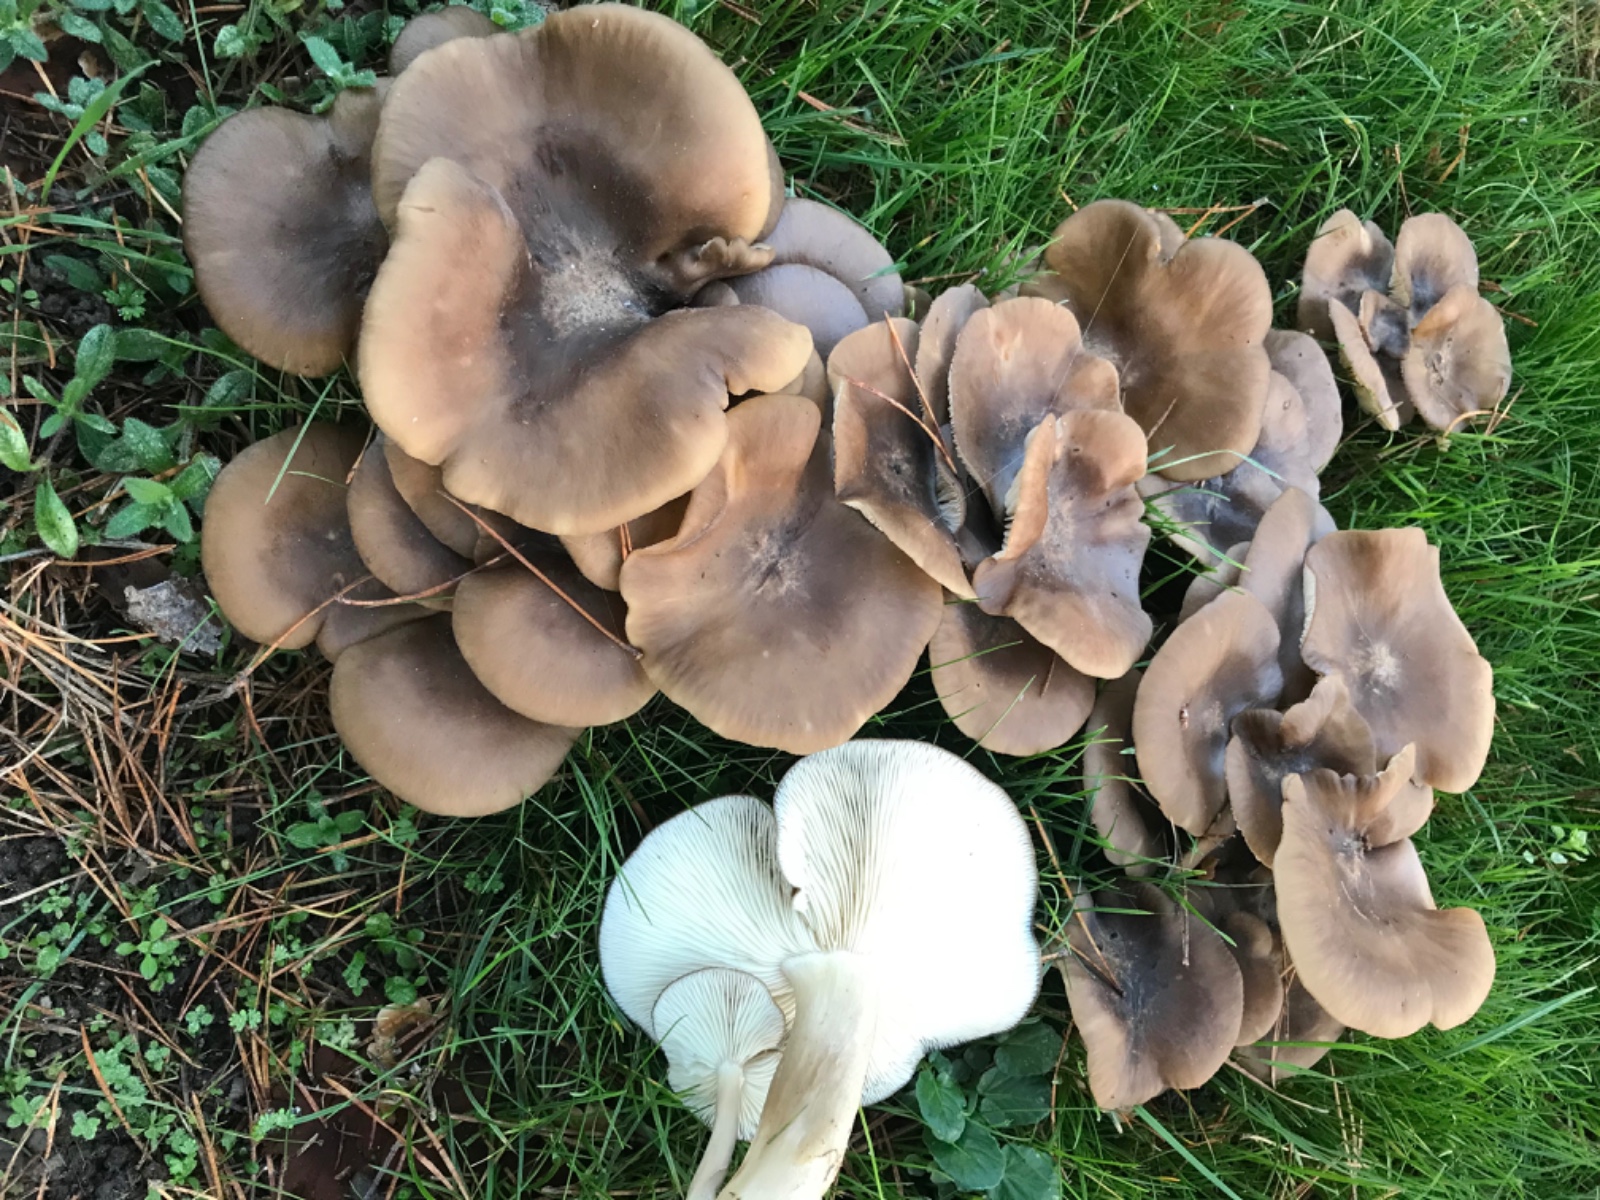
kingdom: Fungi
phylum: Basidiomycota
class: Agaricomycetes
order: Agaricales
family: Lyophyllaceae
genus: Lyophyllum
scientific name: Lyophyllum decastes
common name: røggrå gråblad
